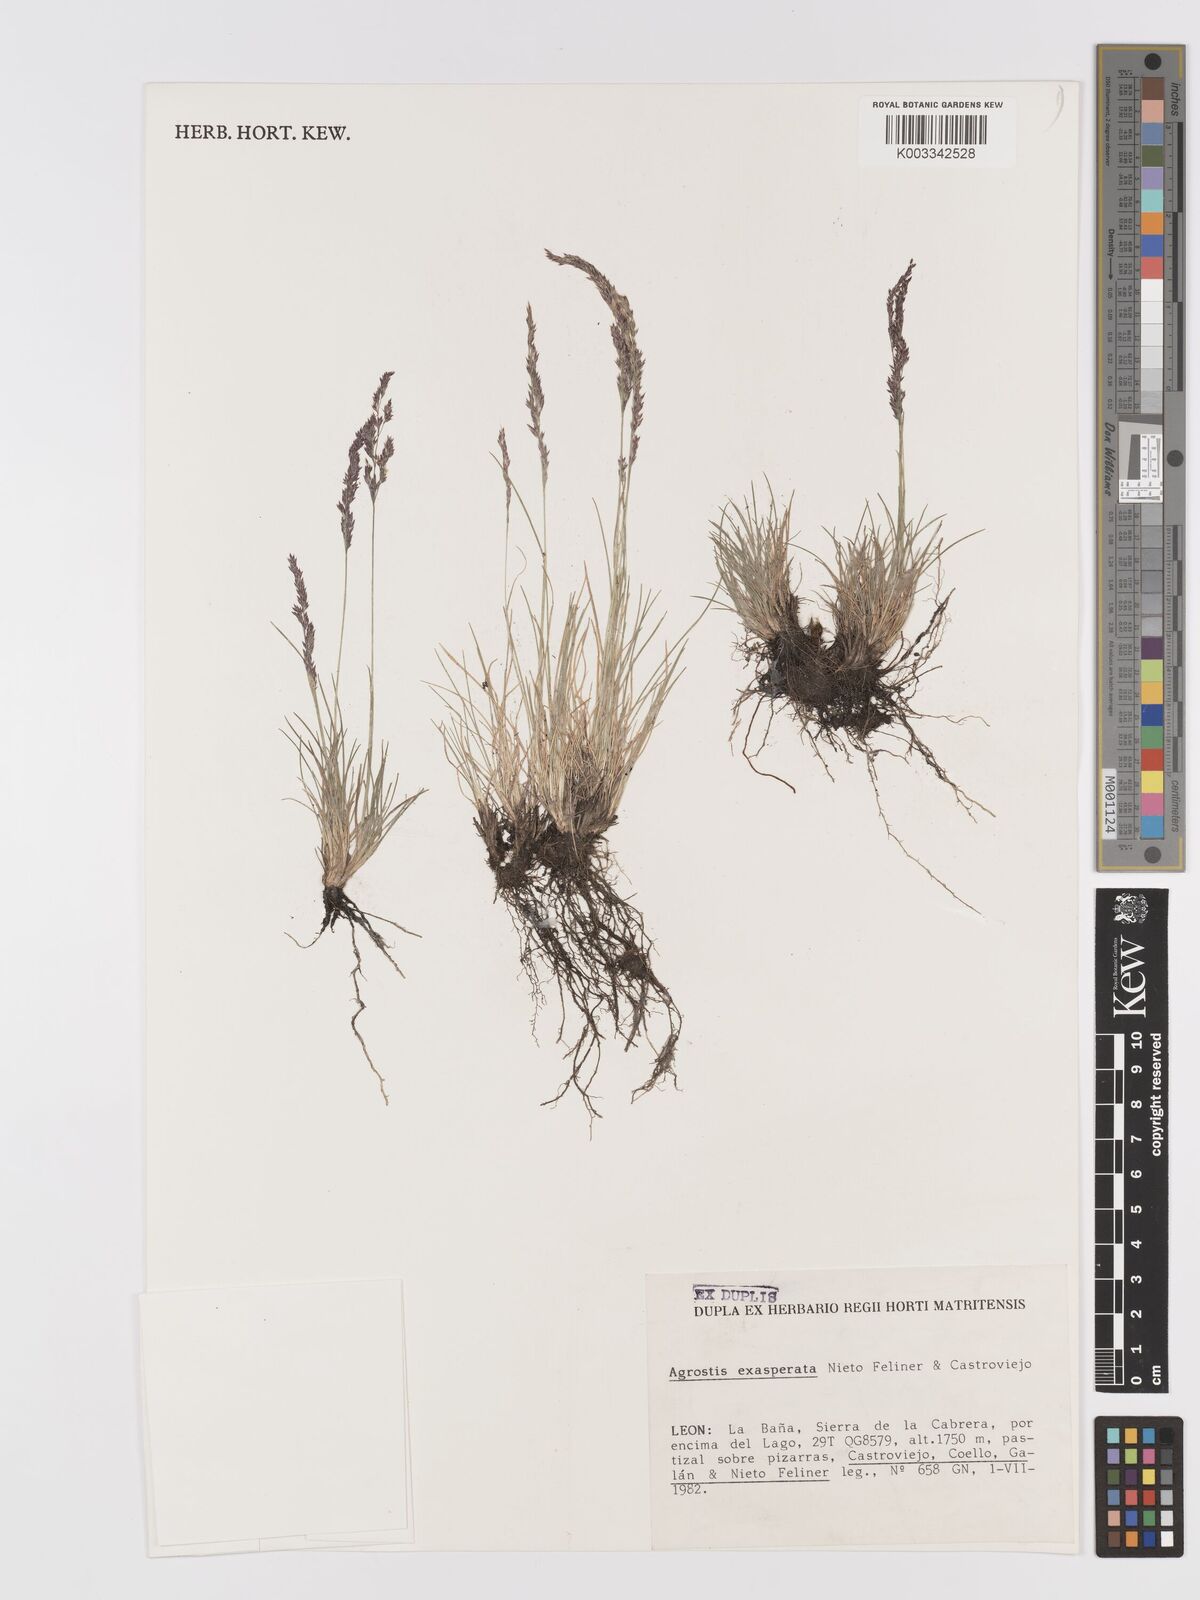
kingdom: Plantae
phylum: Tracheophyta
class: Liliopsida
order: Poales
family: Poaceae
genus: Agrostis
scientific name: Agrostis tileni
